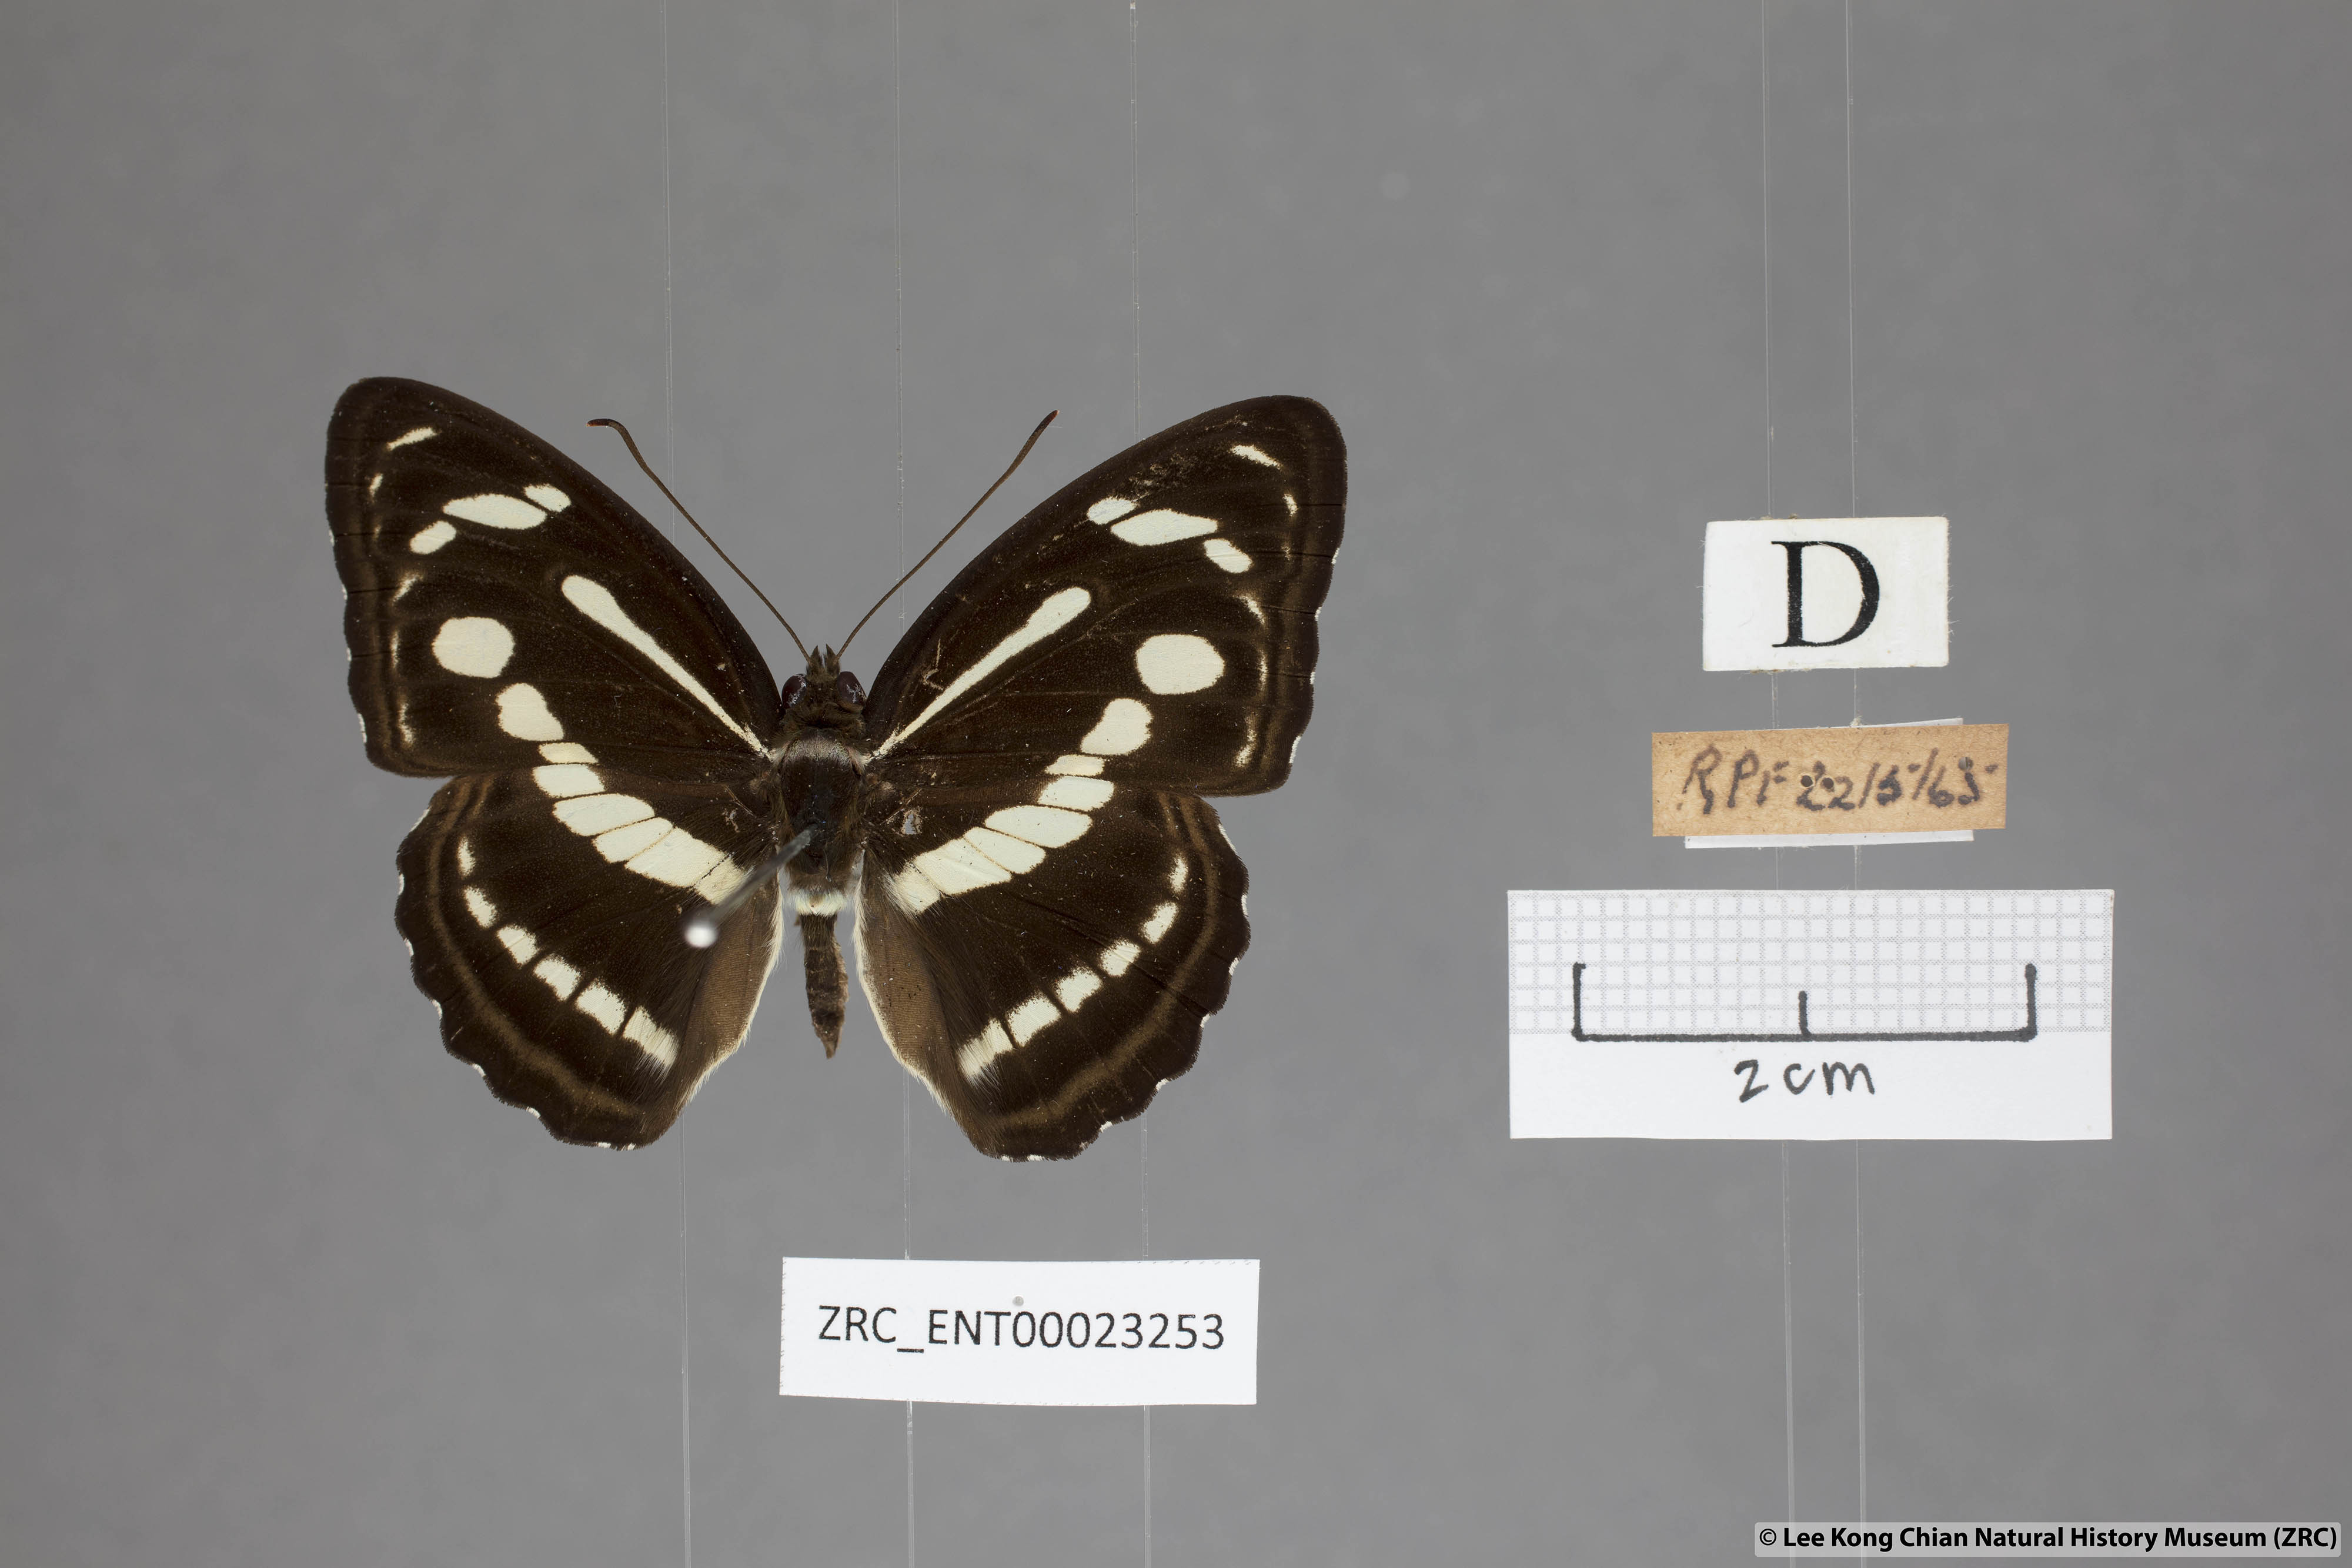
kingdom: Animalia
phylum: Arthropoda
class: Insecta
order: Lepidoptera
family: Nymphalidae
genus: Parathyma
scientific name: Parathyma pravara
